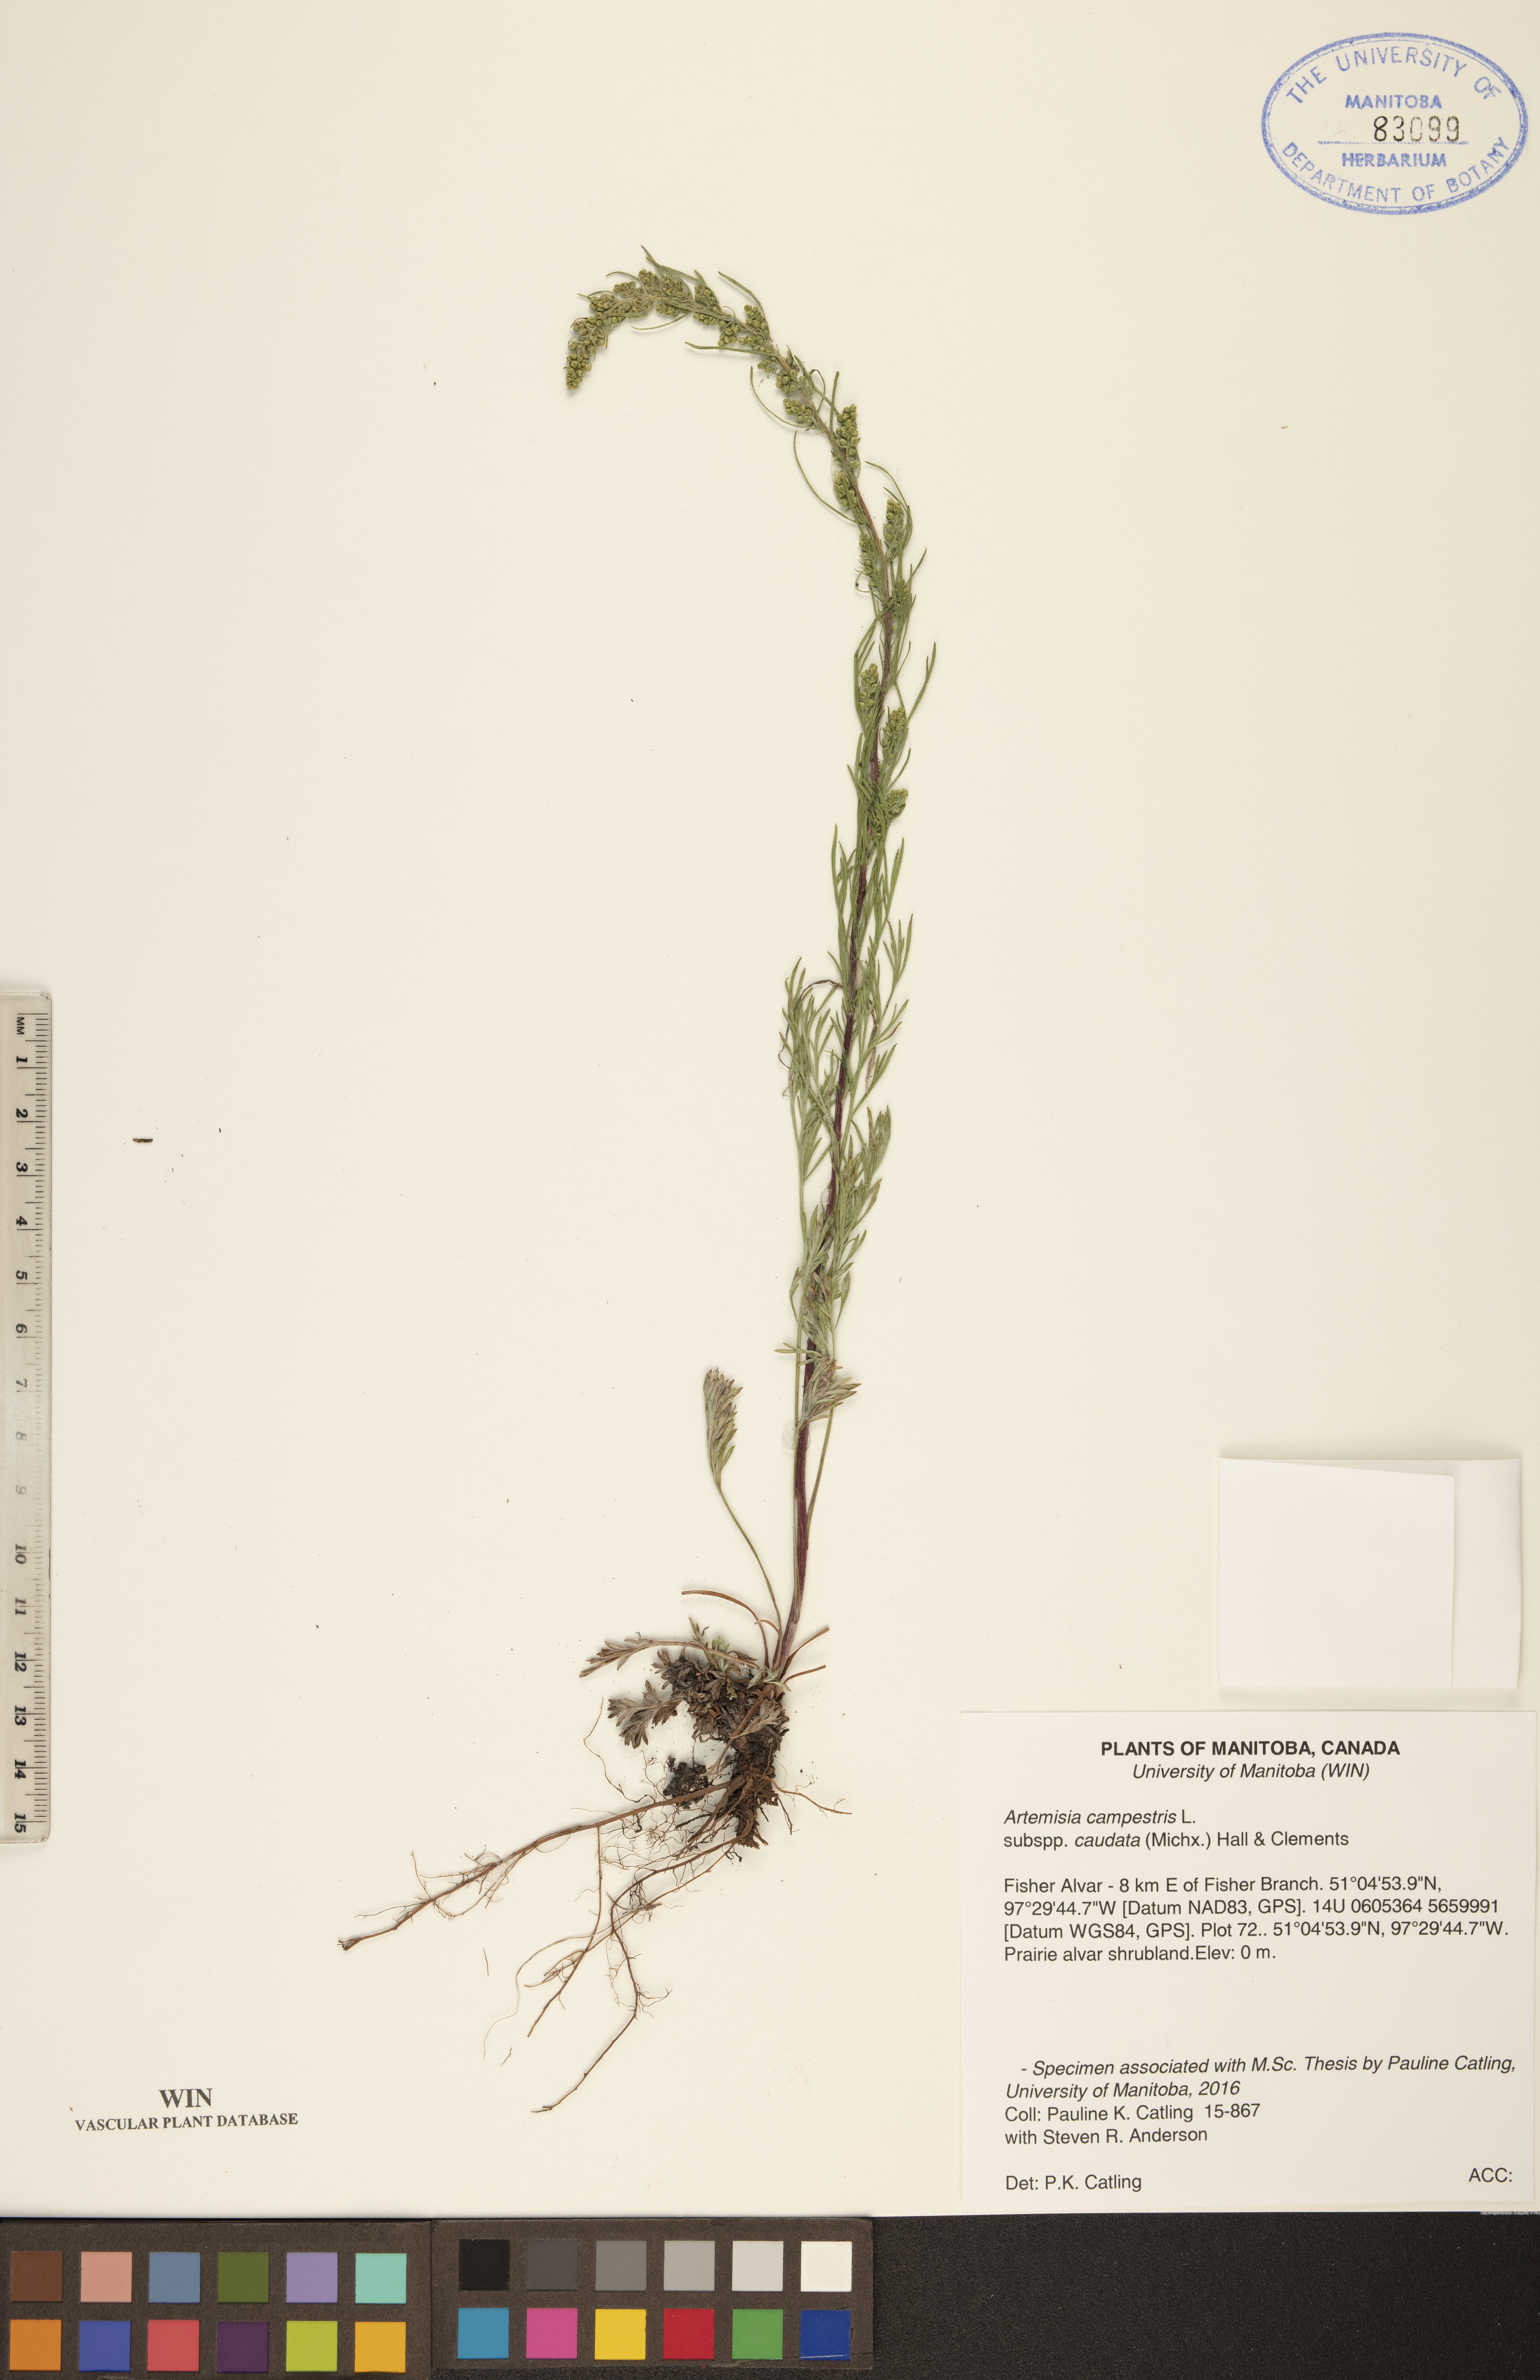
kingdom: Plantae
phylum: Tracheophyta
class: Magnoliopsida
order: Asterales
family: Asteraceae
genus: Artemisia
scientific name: Artemisia campestris
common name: Field wormwood
